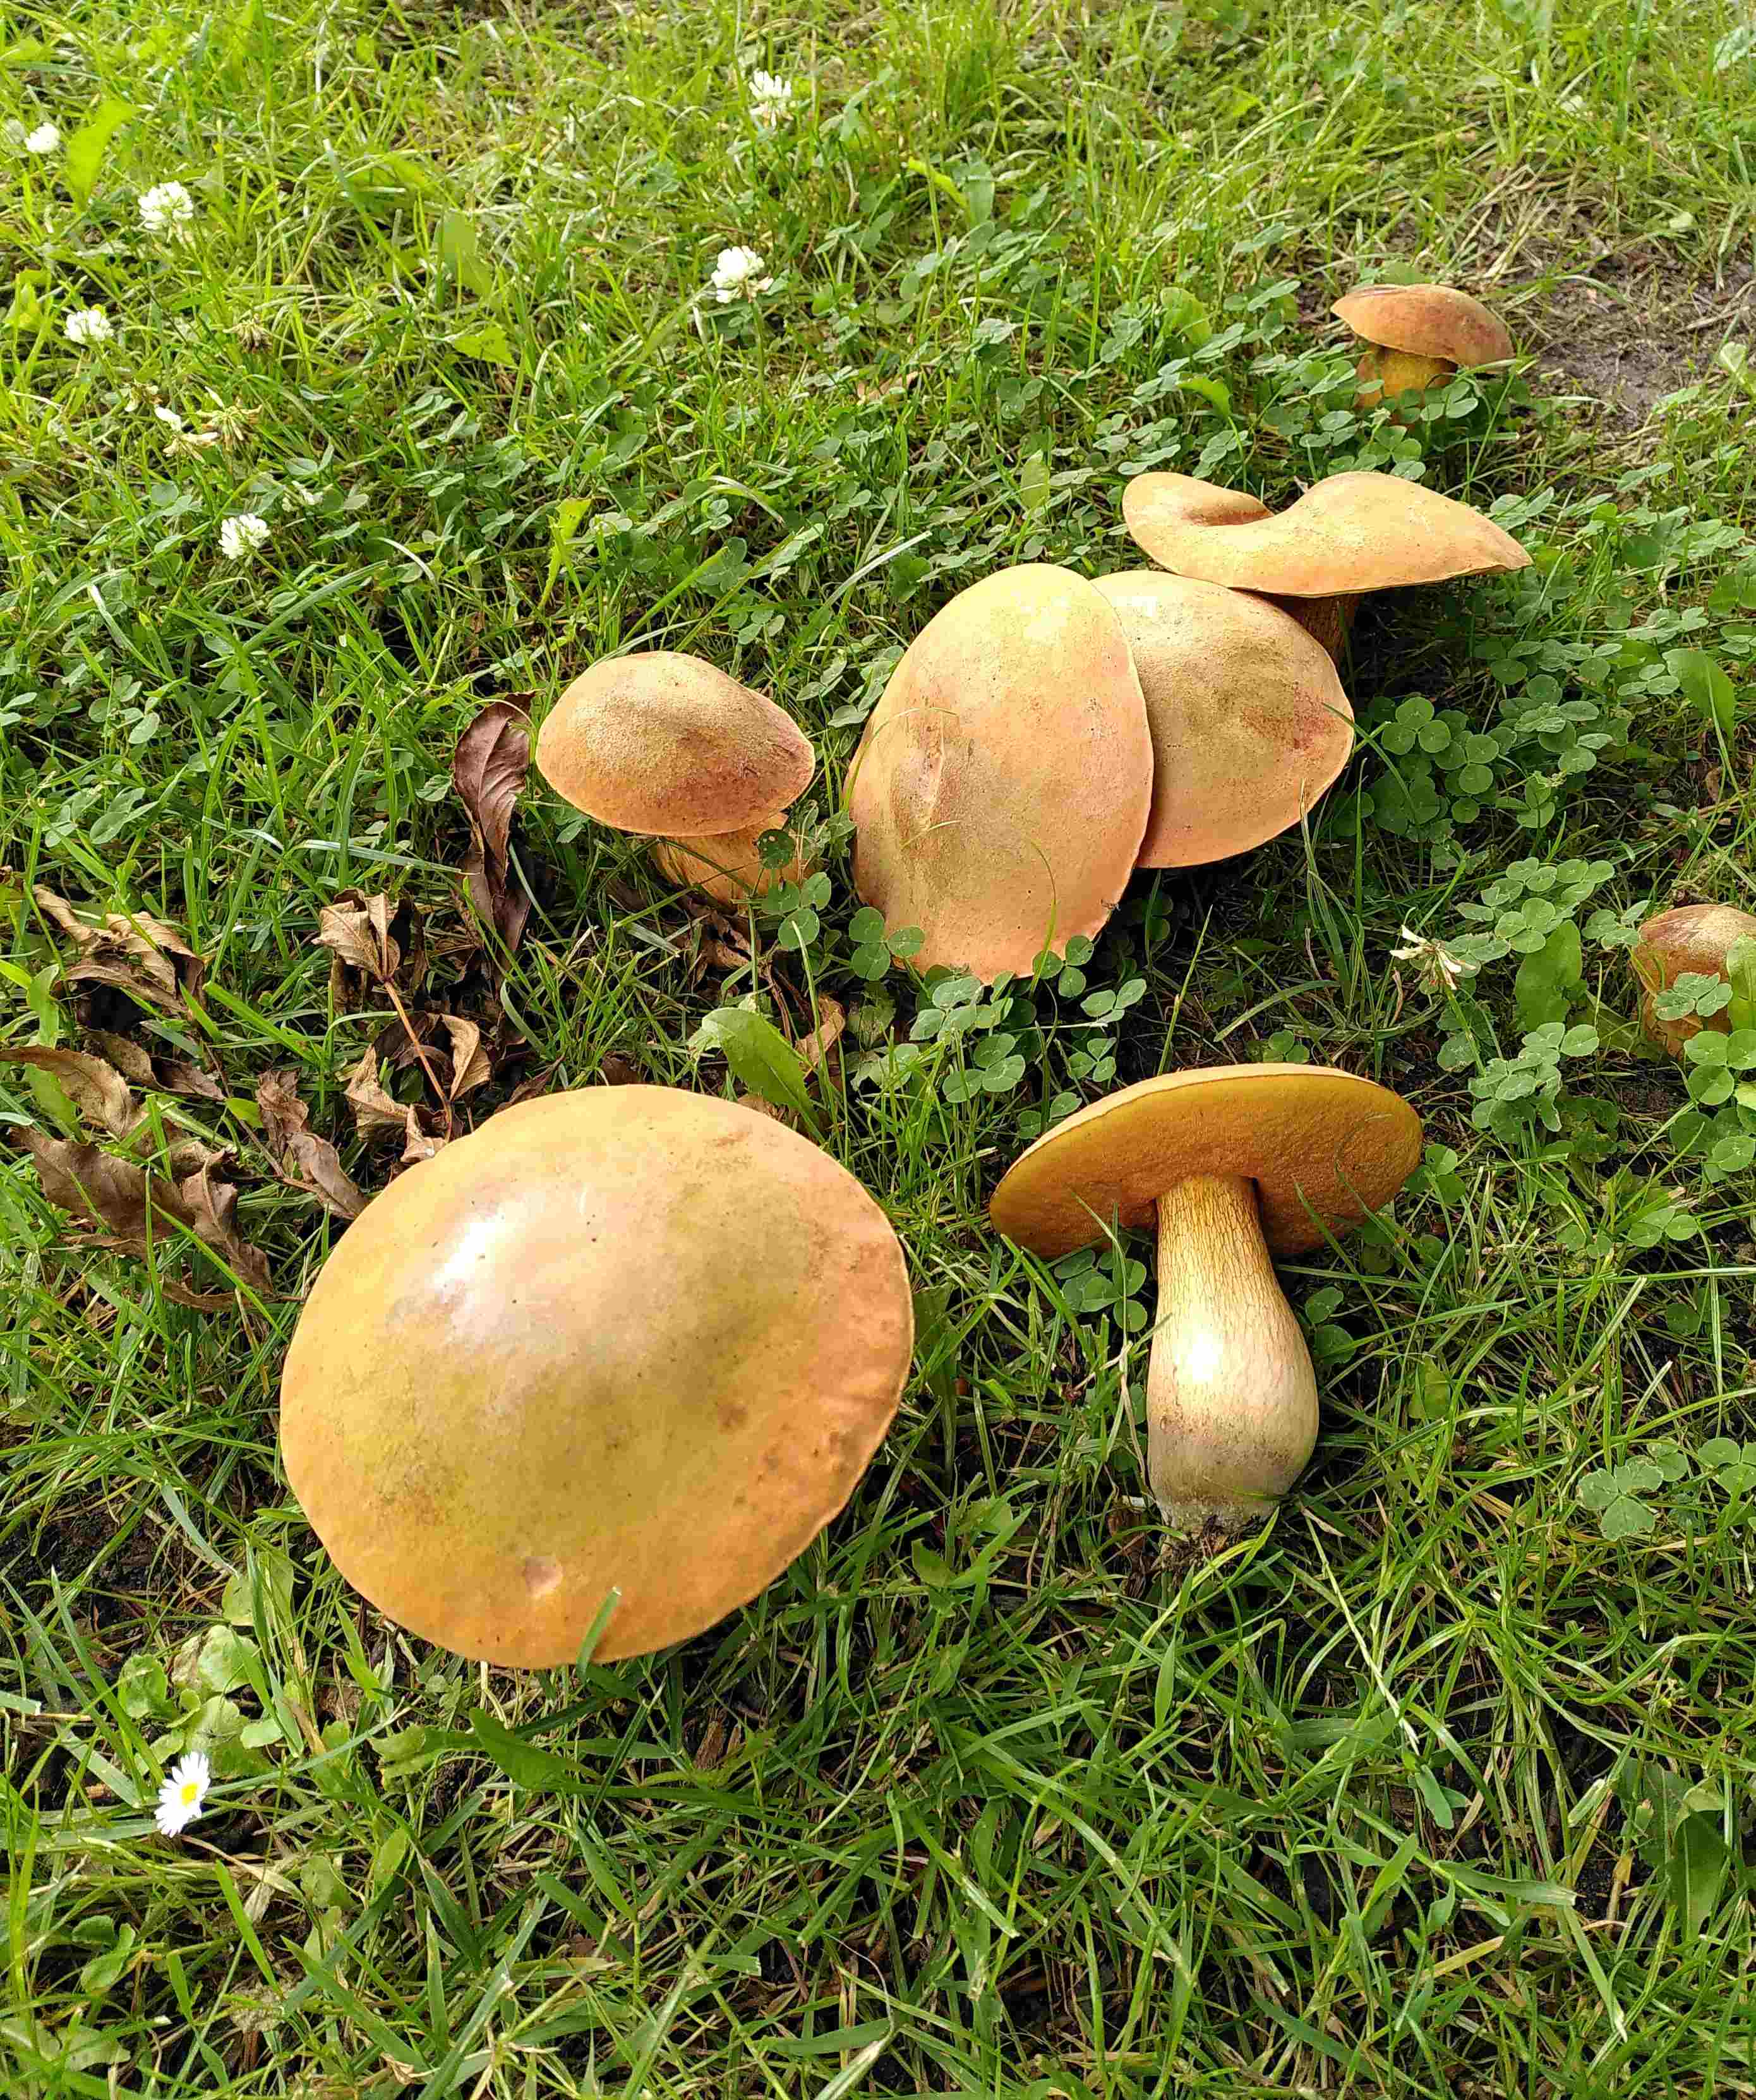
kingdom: Fungi
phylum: Basidiomycota
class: Agaricomycetes
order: Boletales
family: Boletaceae
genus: Suillellus
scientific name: Suillellus luridus
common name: netstokket indigorørhat
